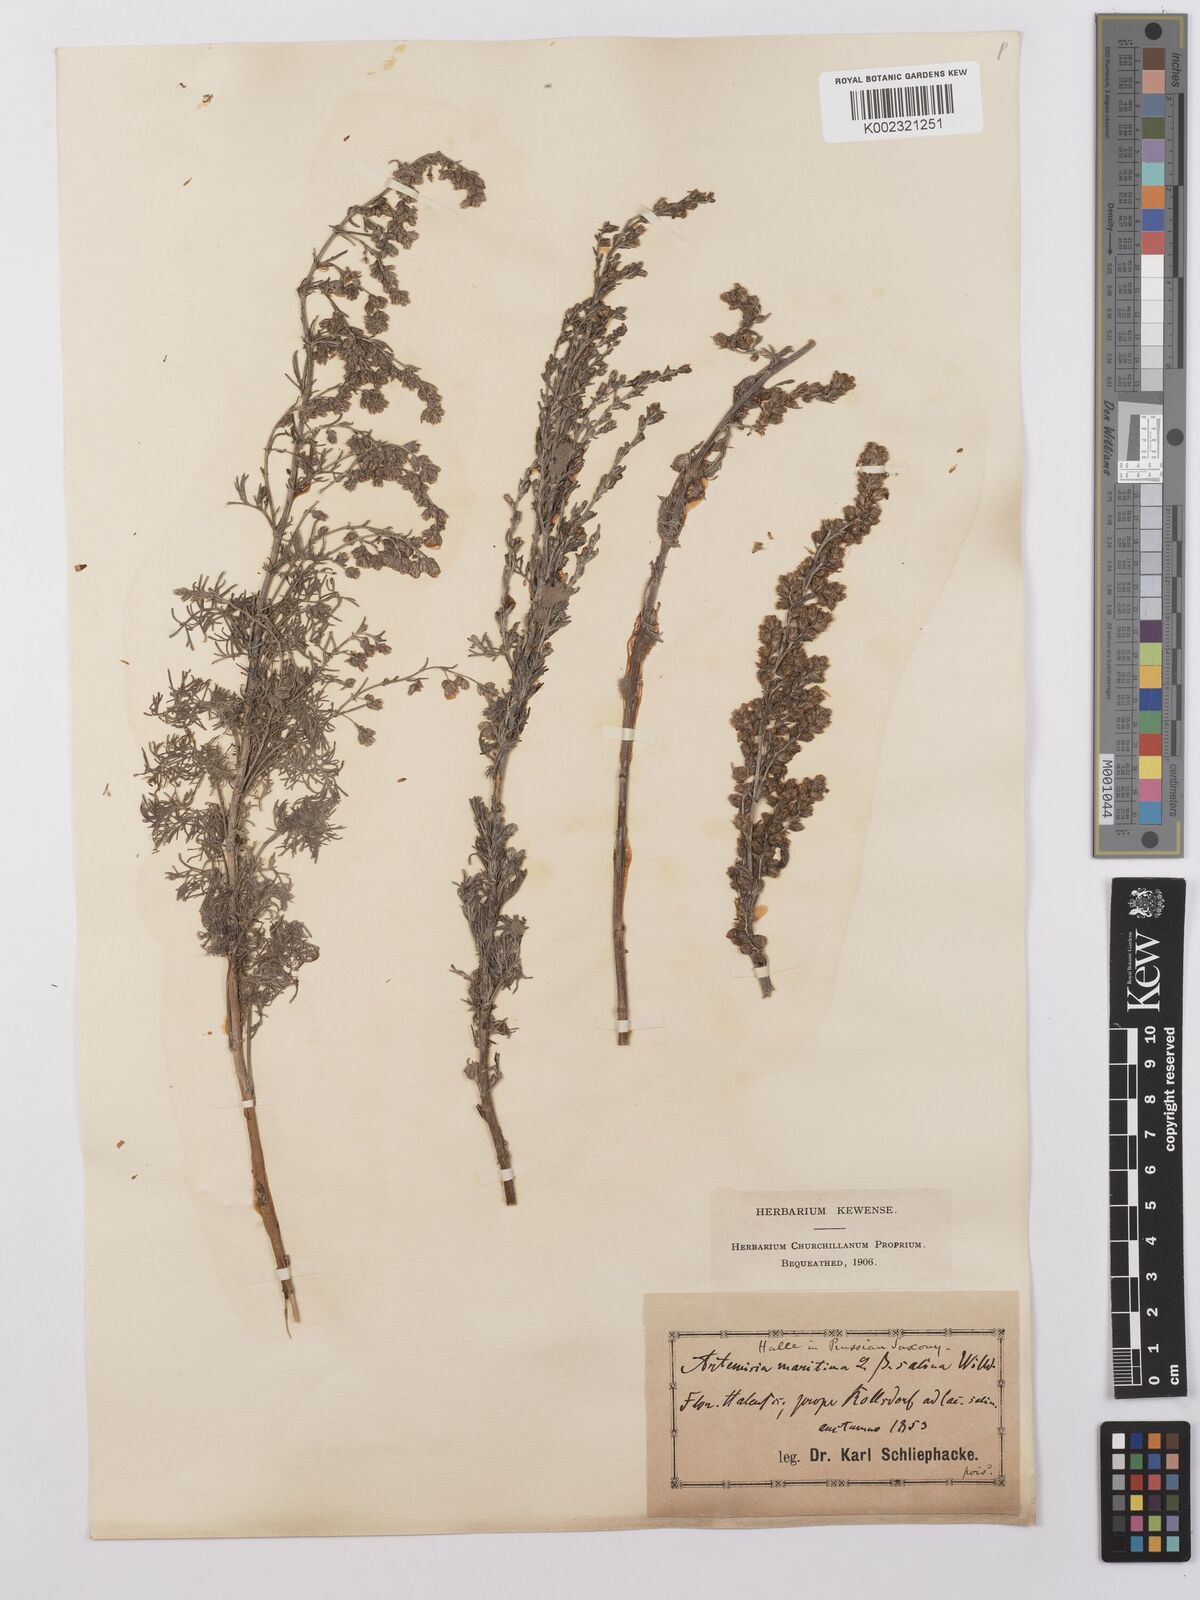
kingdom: Plantae
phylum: Tracheophyta
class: Magnoliopsida
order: Asterales
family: Asteraceae
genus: Artemisia
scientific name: Artemisia maritima
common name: Wormseed
